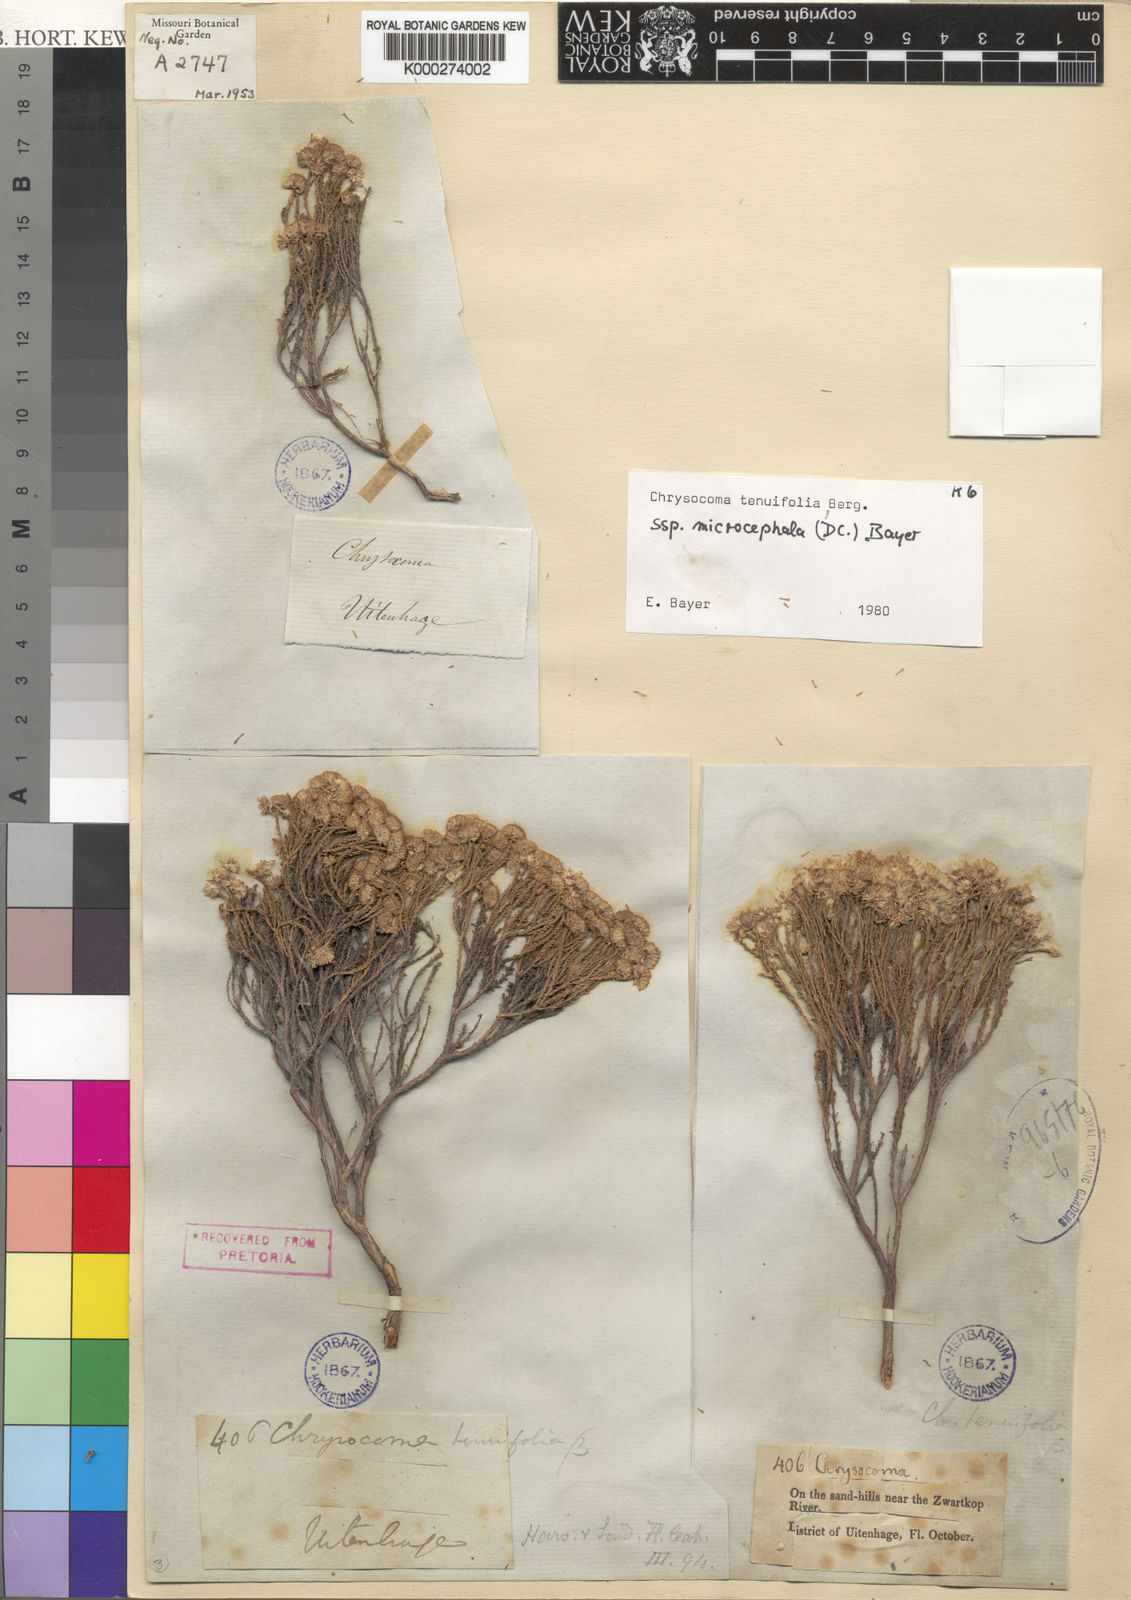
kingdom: Plantae
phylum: Tracheophyta
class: Magnoliopsida
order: Asterales
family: Asteraceae
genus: Chrysocoma
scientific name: Chrysocoma ciliata
